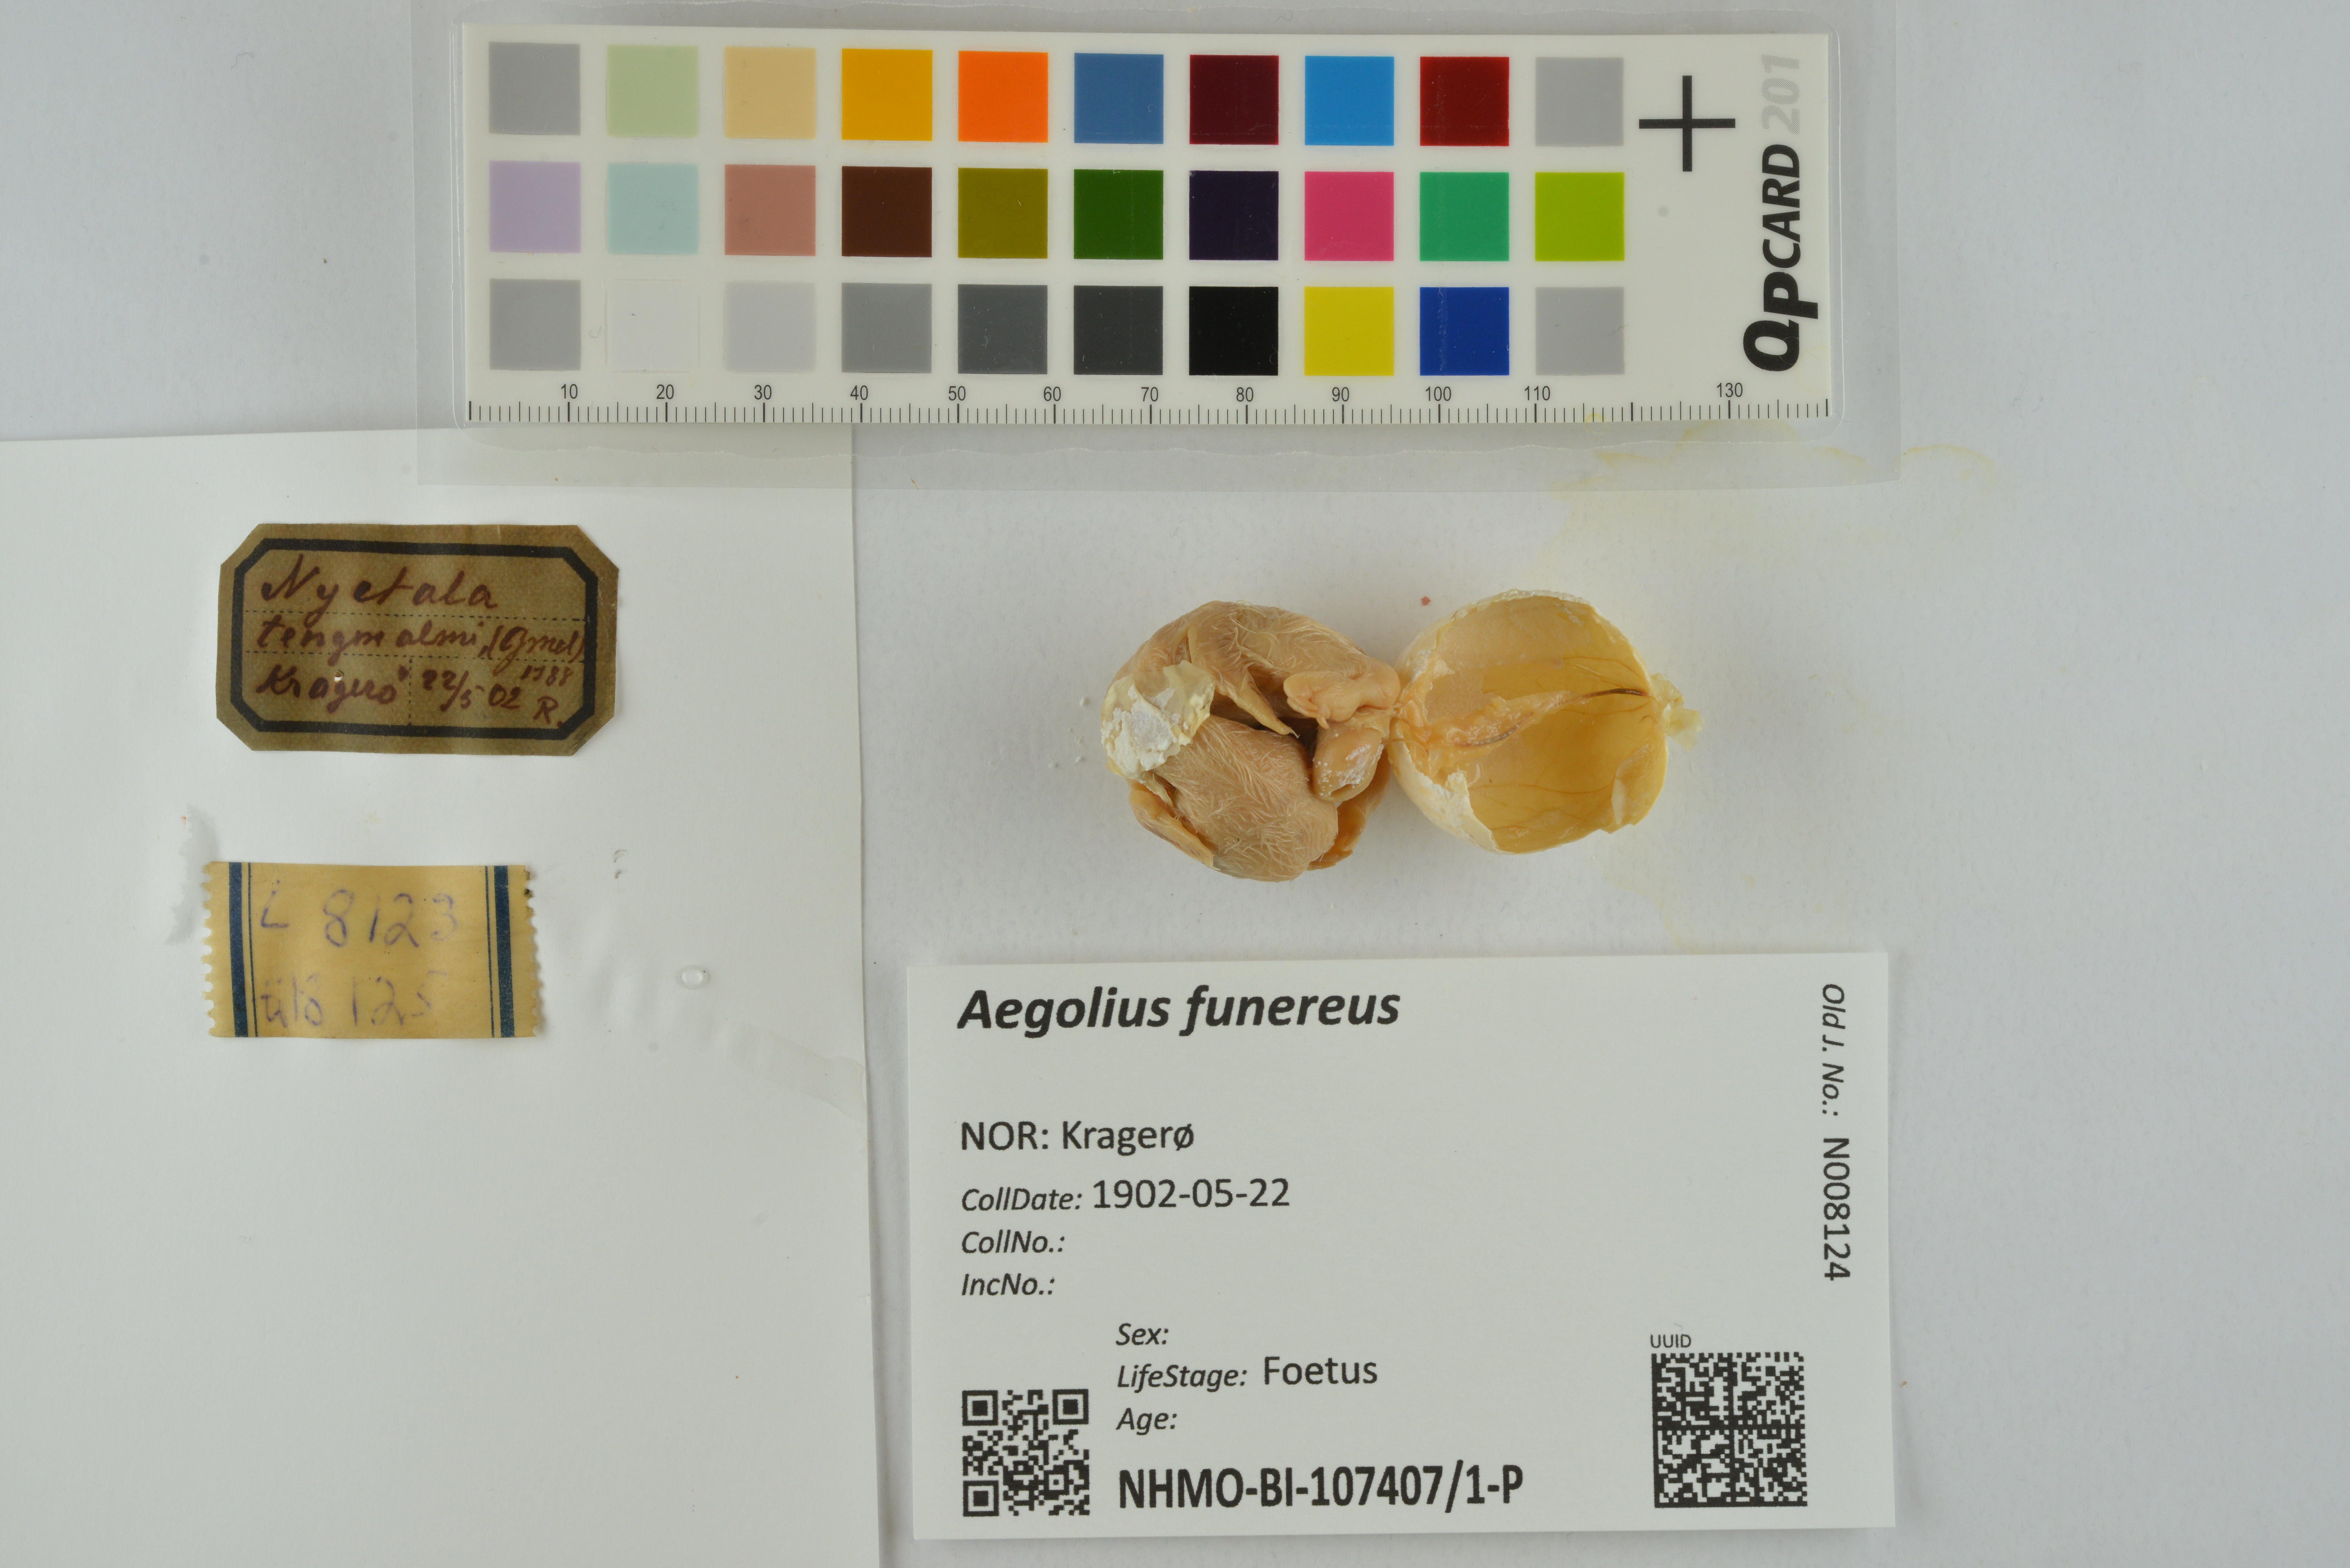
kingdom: Animalia
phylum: Chordata
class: Aves
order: Strigiformes
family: Strigidae
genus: Aegolius
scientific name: Aegolius funereus
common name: Boreal owl
